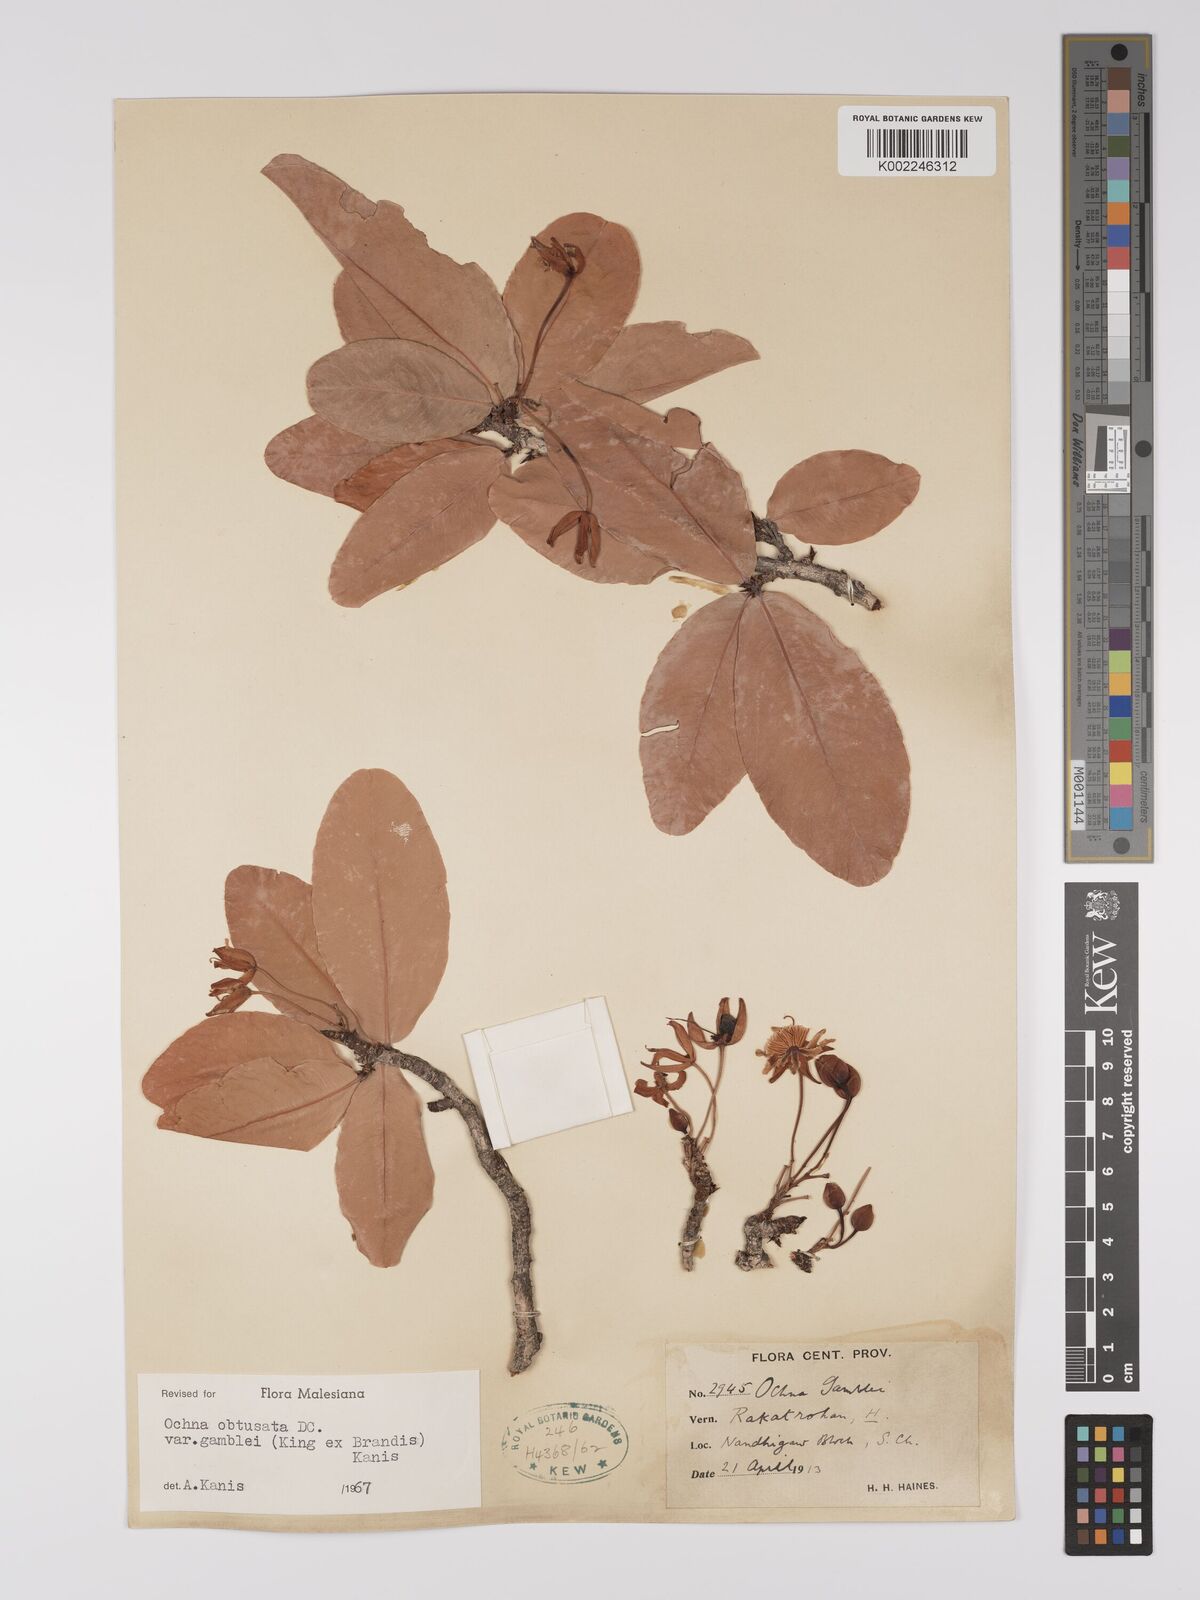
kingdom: Plantae
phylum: Tracheophyta
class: Magnoliopsida
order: Malpighiales
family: Ochnaceae
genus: Ochna
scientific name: Ochna obtusata
